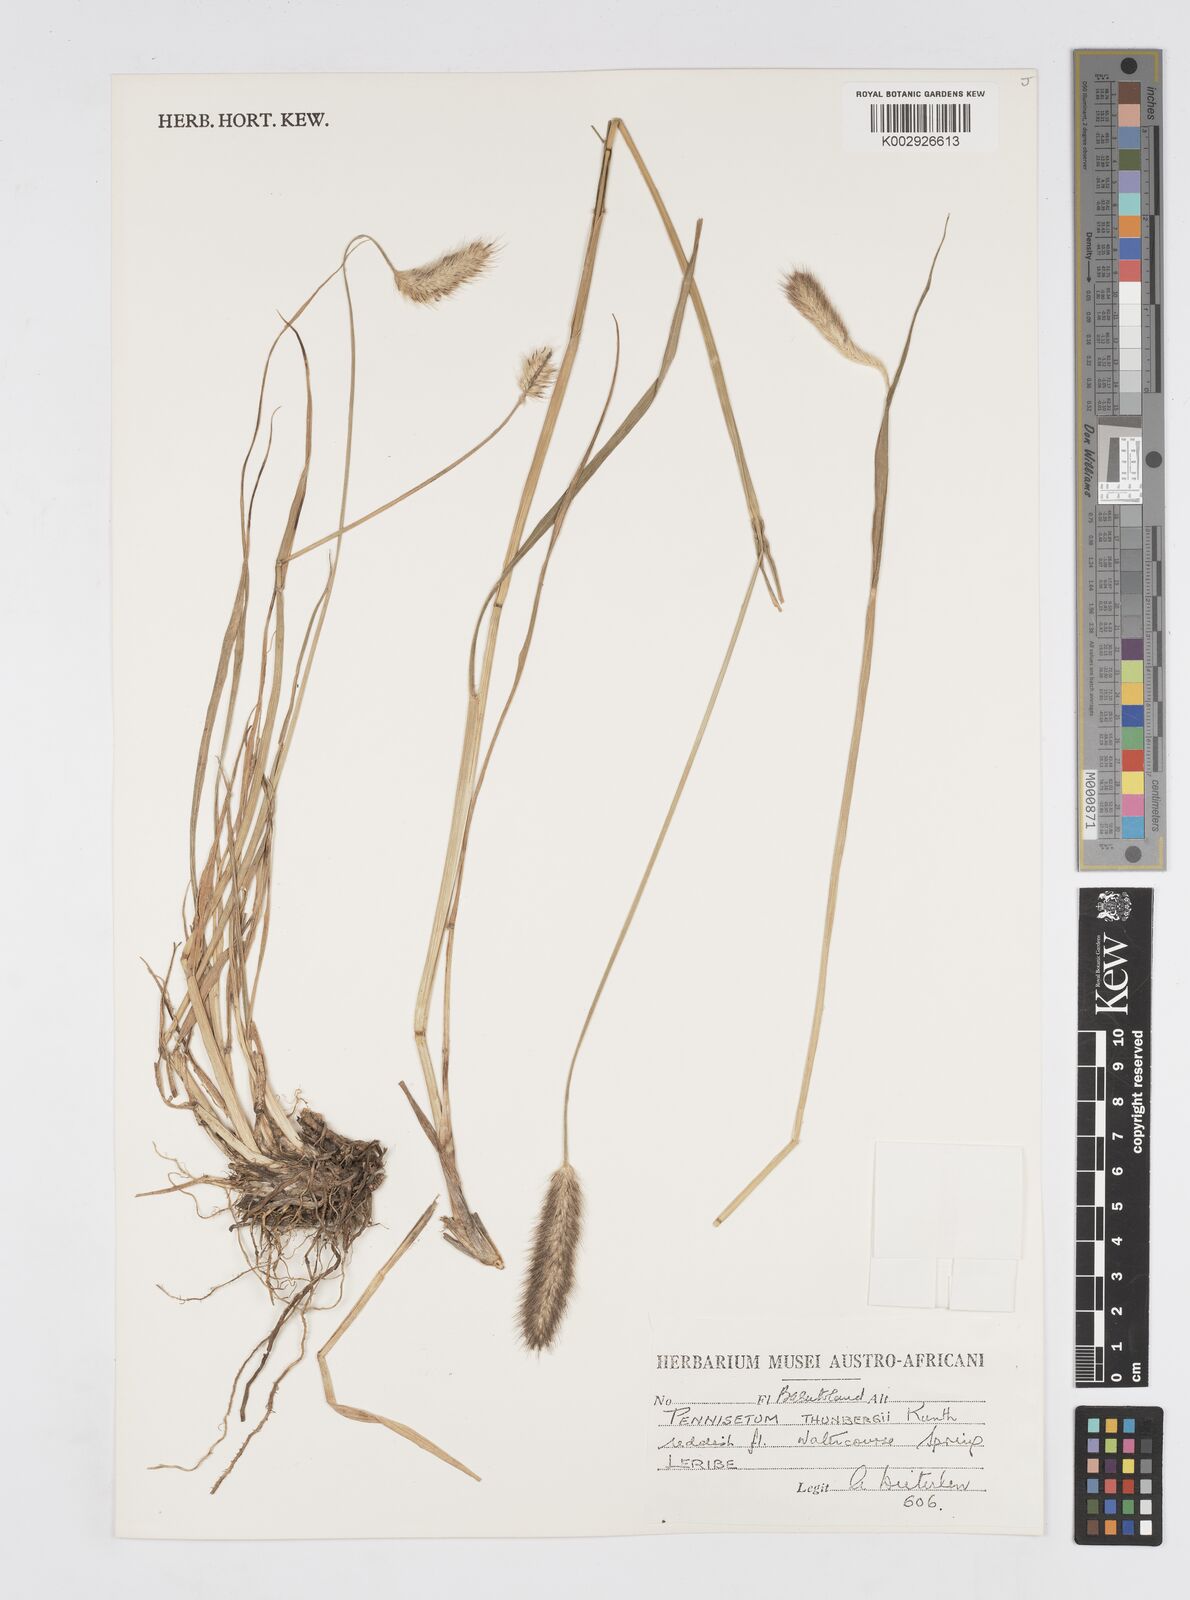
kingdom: Plantae
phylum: Tracheophyta
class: Liliopsida
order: Poales
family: Poaceae
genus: Cenchrus
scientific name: Cenchrus geniculatus
